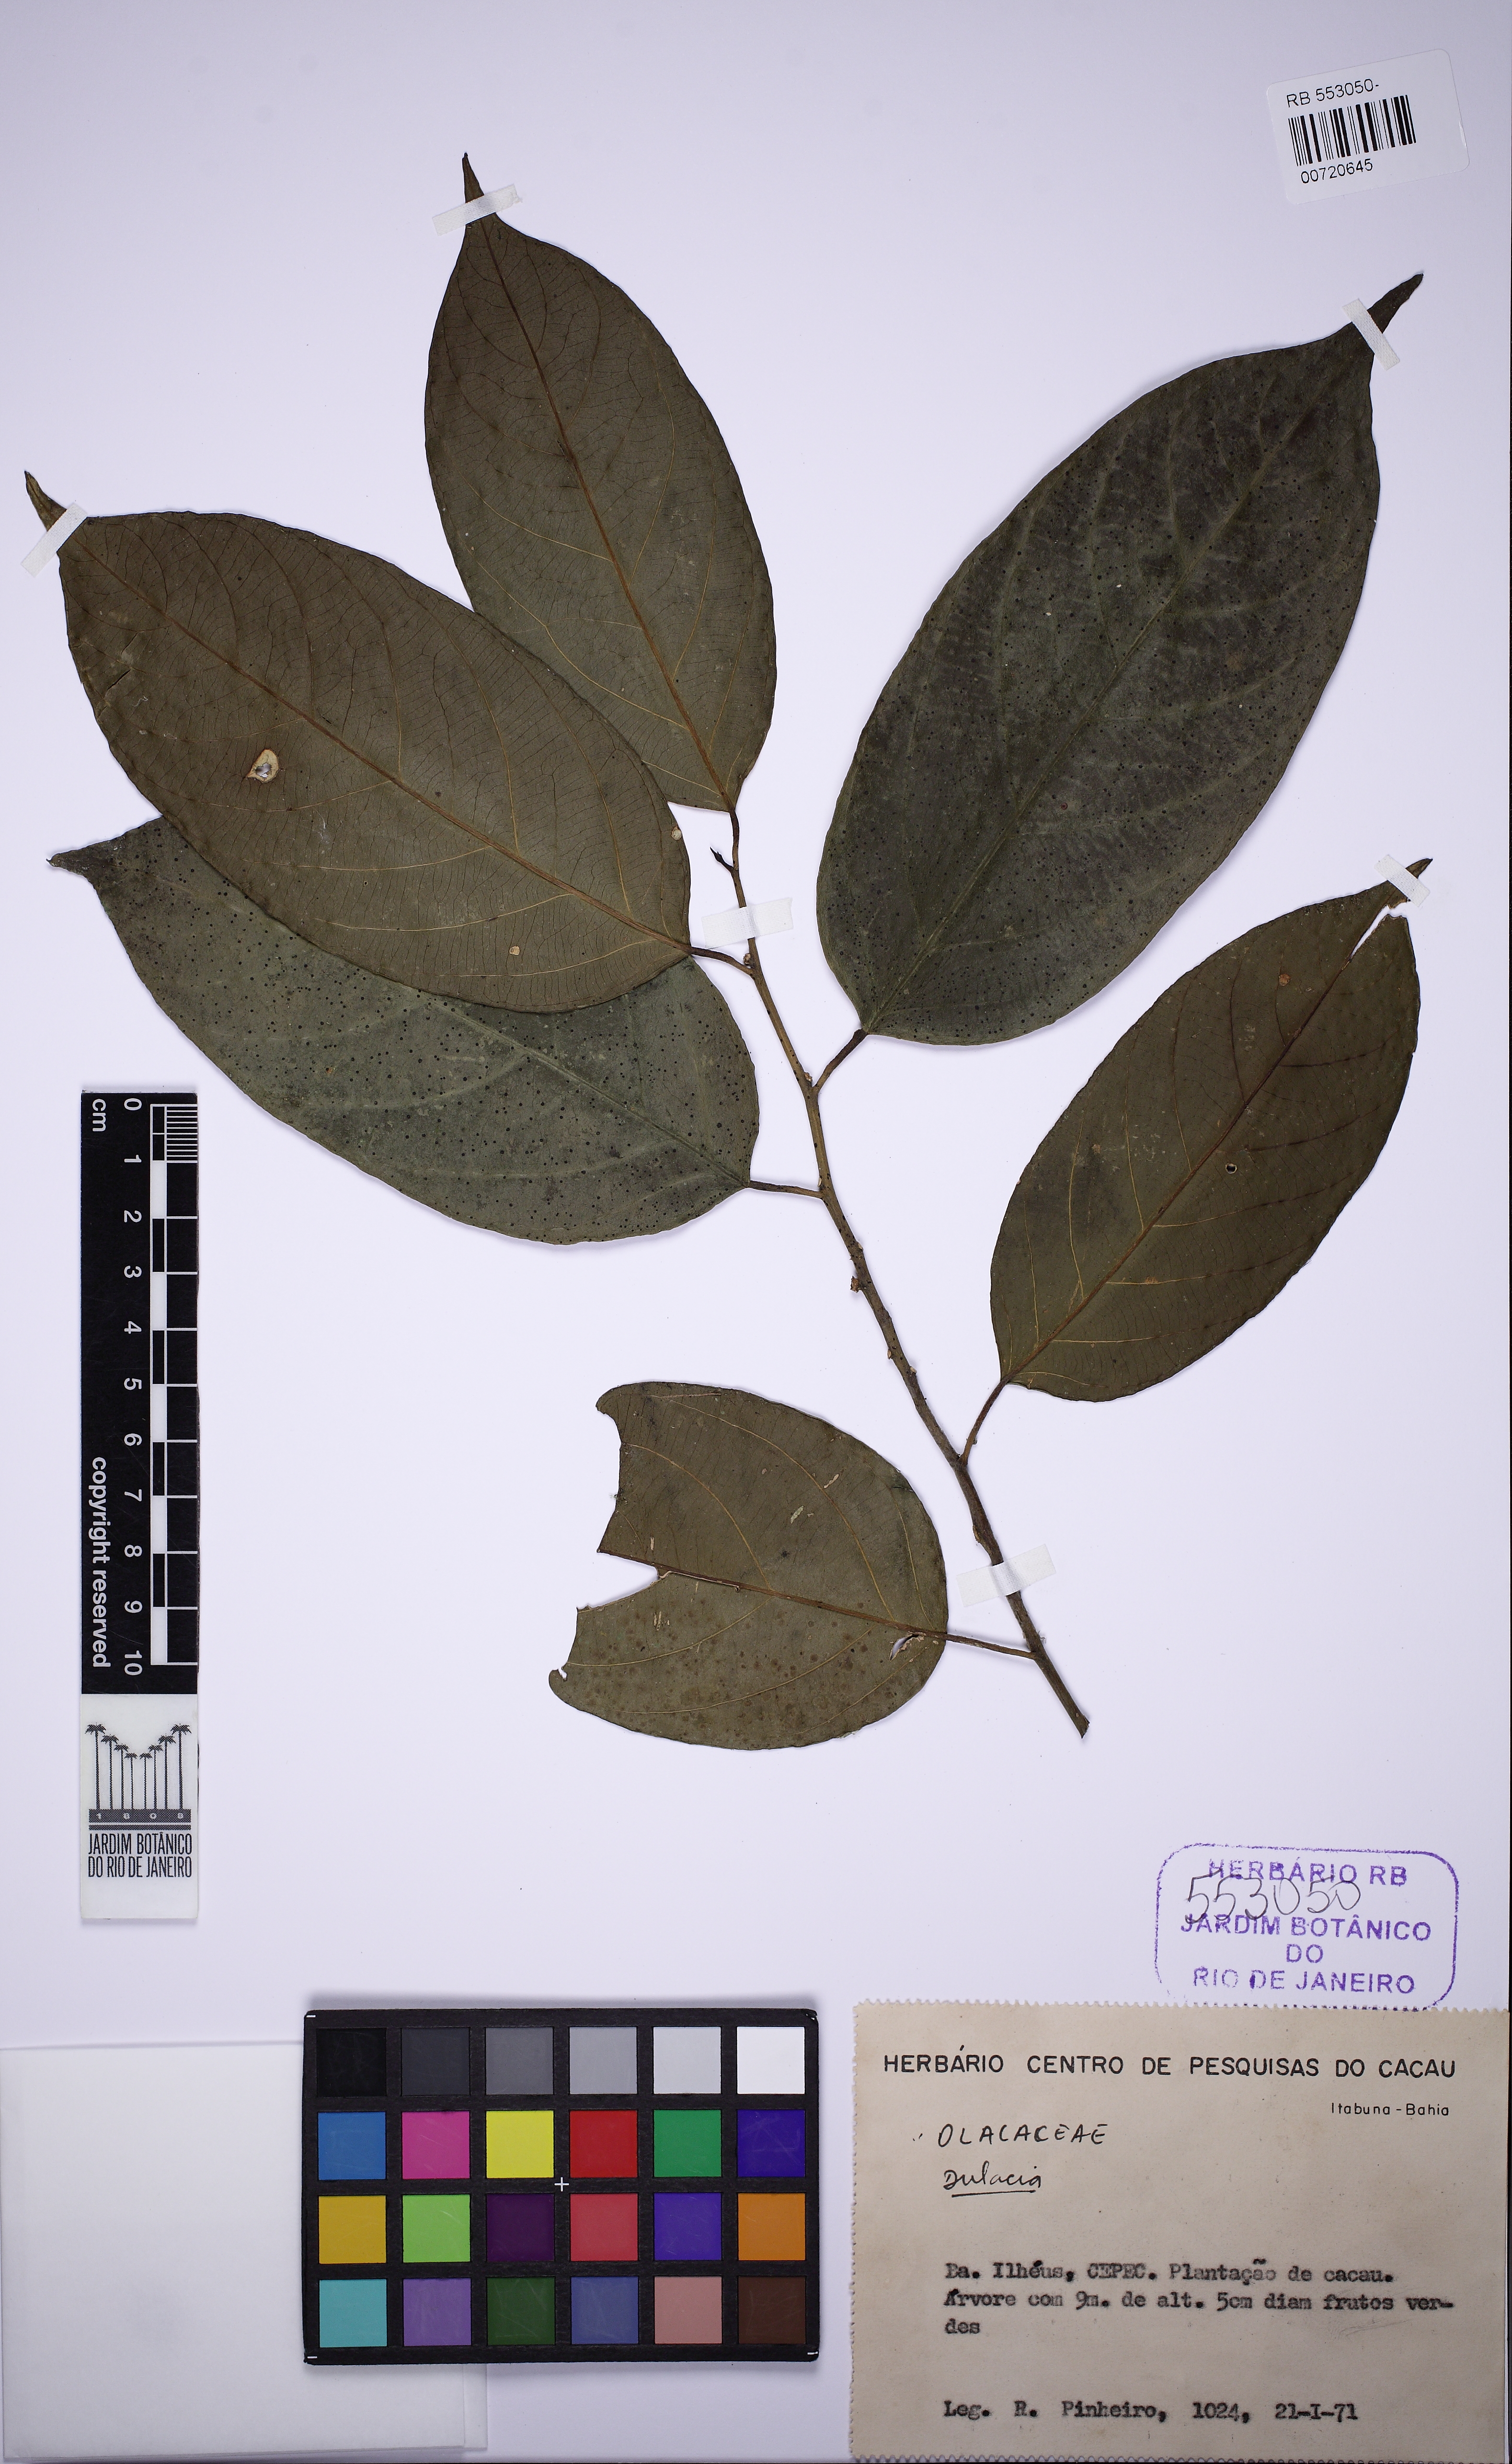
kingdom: Plantae
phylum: Tracheophyta
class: Magnoliopsida
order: Santalales
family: Olacaceae
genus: Dulacia
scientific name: Dulacia
